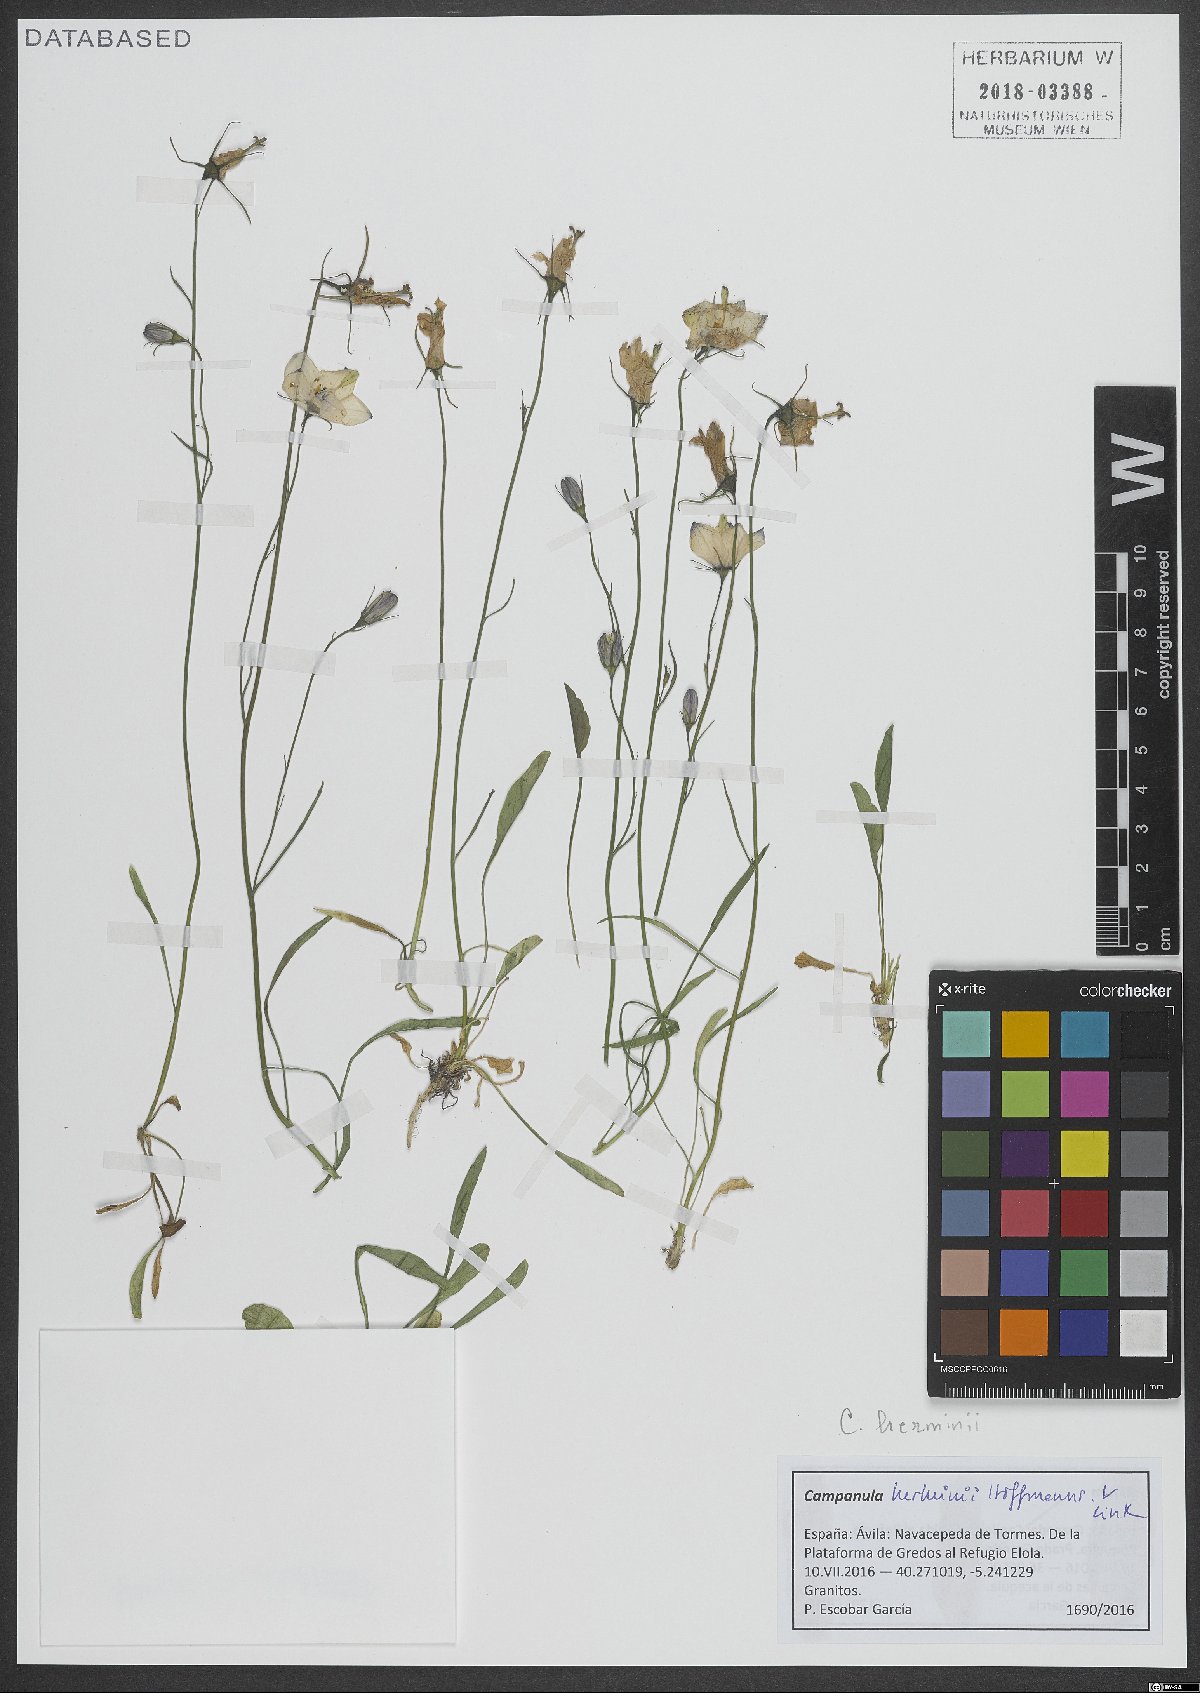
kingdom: Plantae
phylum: Tracheophyta
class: Magnoliopsida
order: Asterales
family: Campanulaceae
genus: Campanula
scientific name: Campanula herminii
